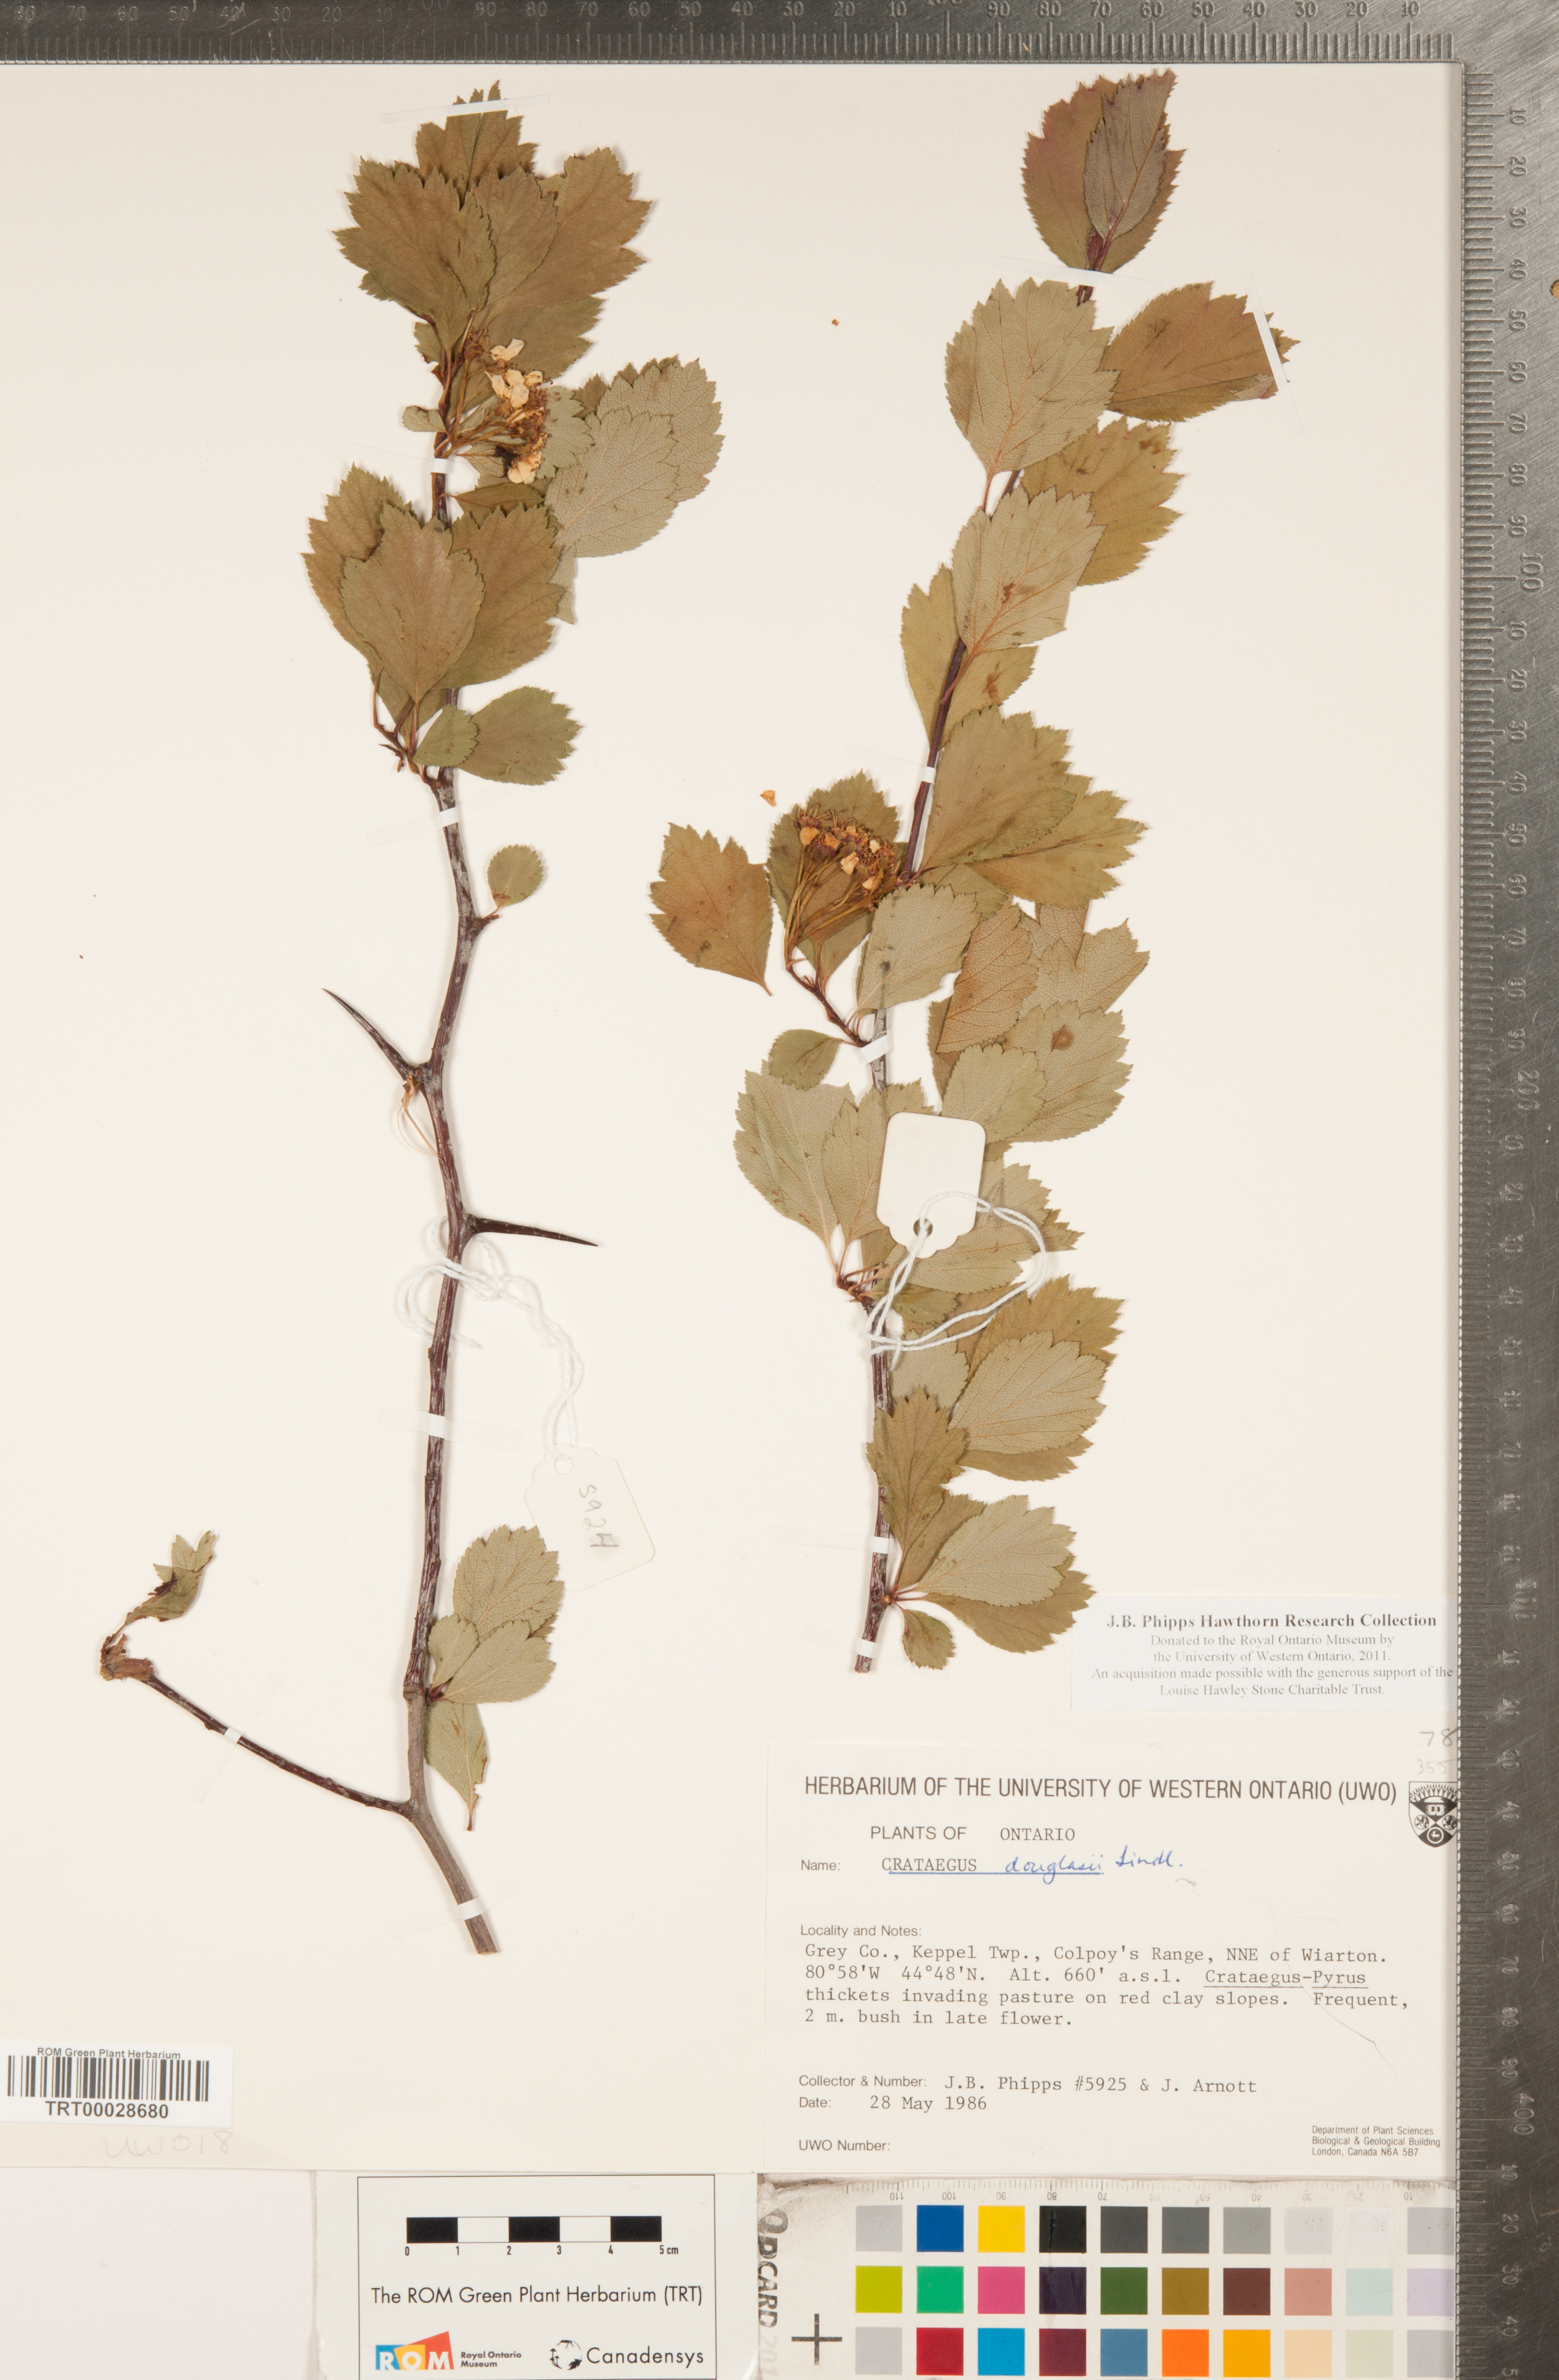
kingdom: Plantae
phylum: Tracheophyta
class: Magnoliopsida
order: Rosales
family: Rosaceae
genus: Crataegus
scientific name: Crataegus douglasii
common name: Black hawthorn
